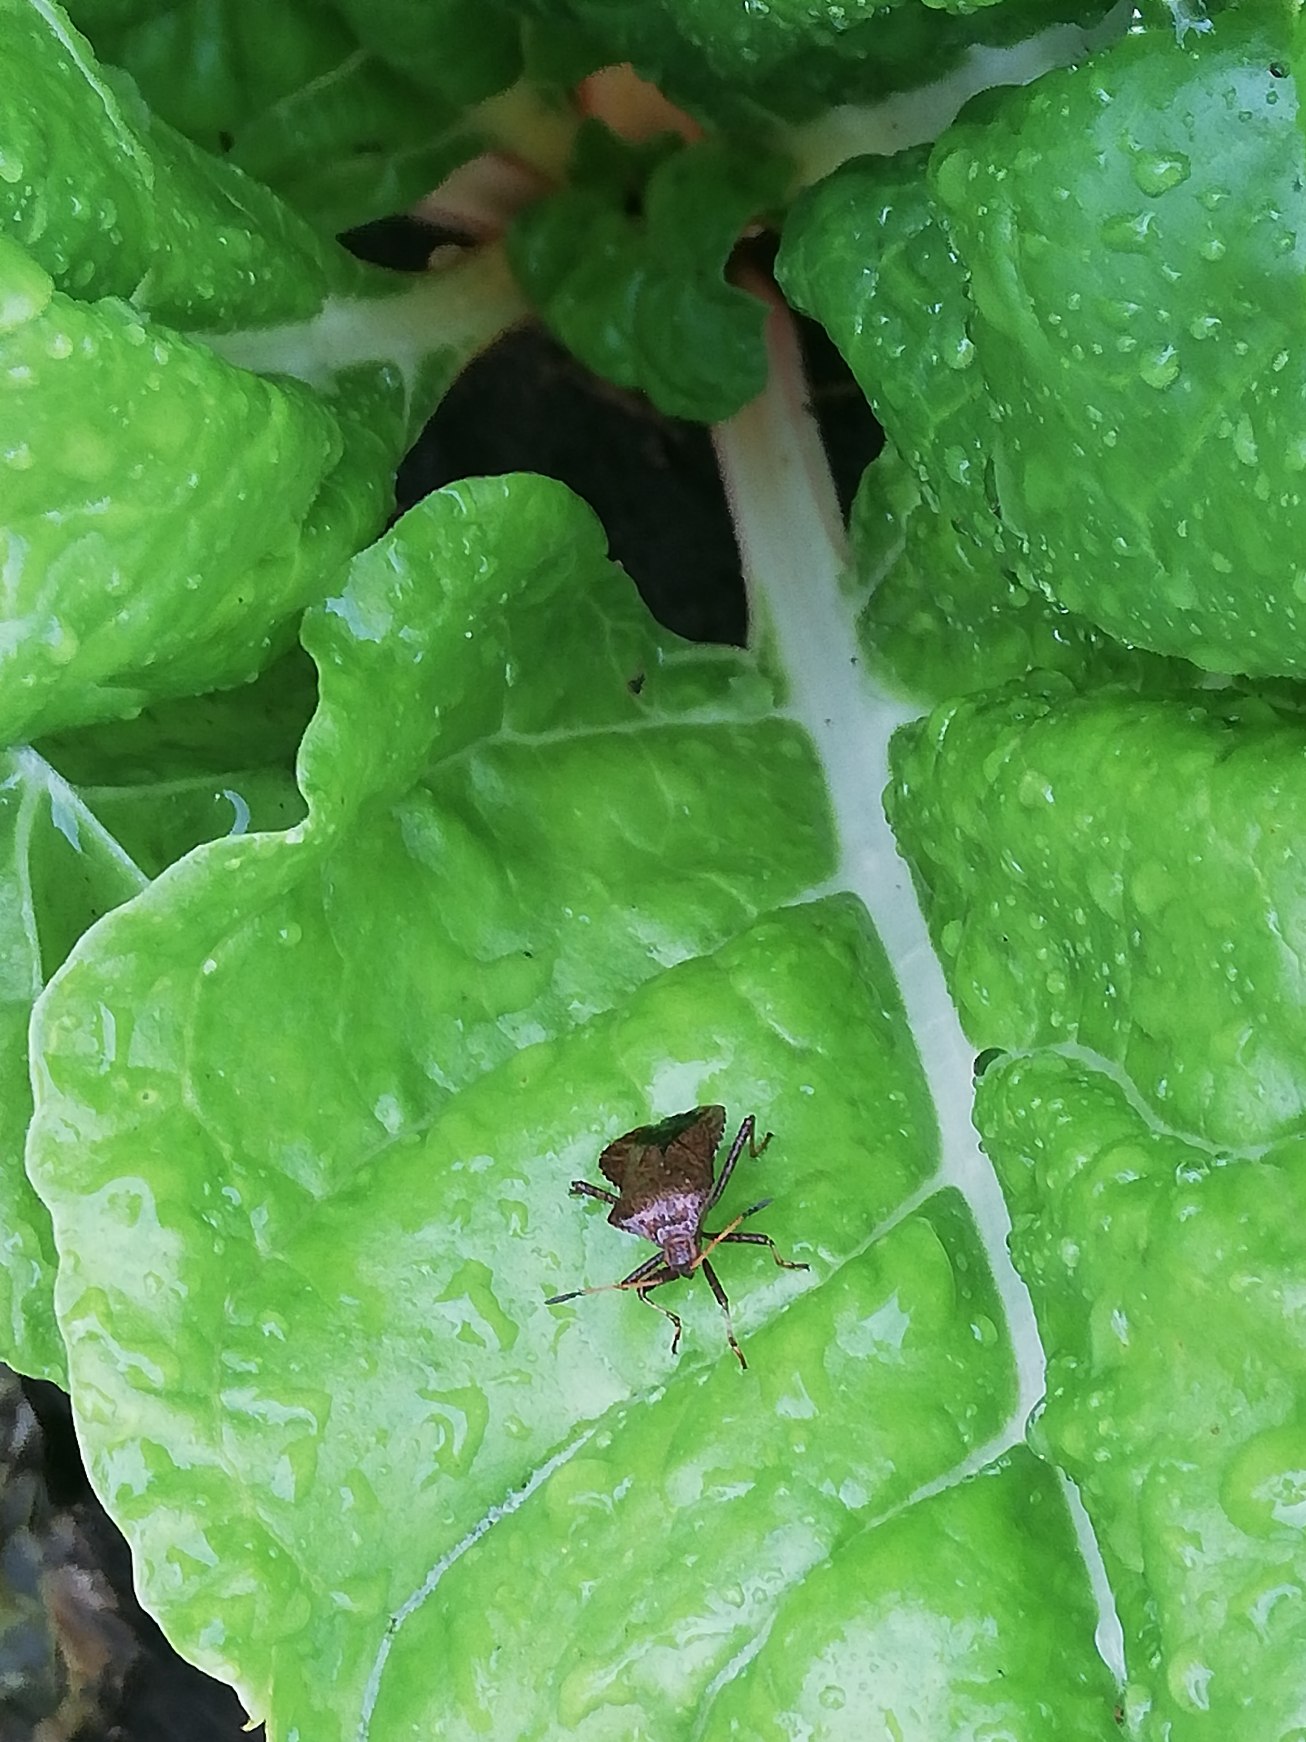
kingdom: Animalia
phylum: Arthropoda
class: Insecta
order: Hemiptera
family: Coreidae
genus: Coreus
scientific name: Coreus marginatus
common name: Skræppetæge
